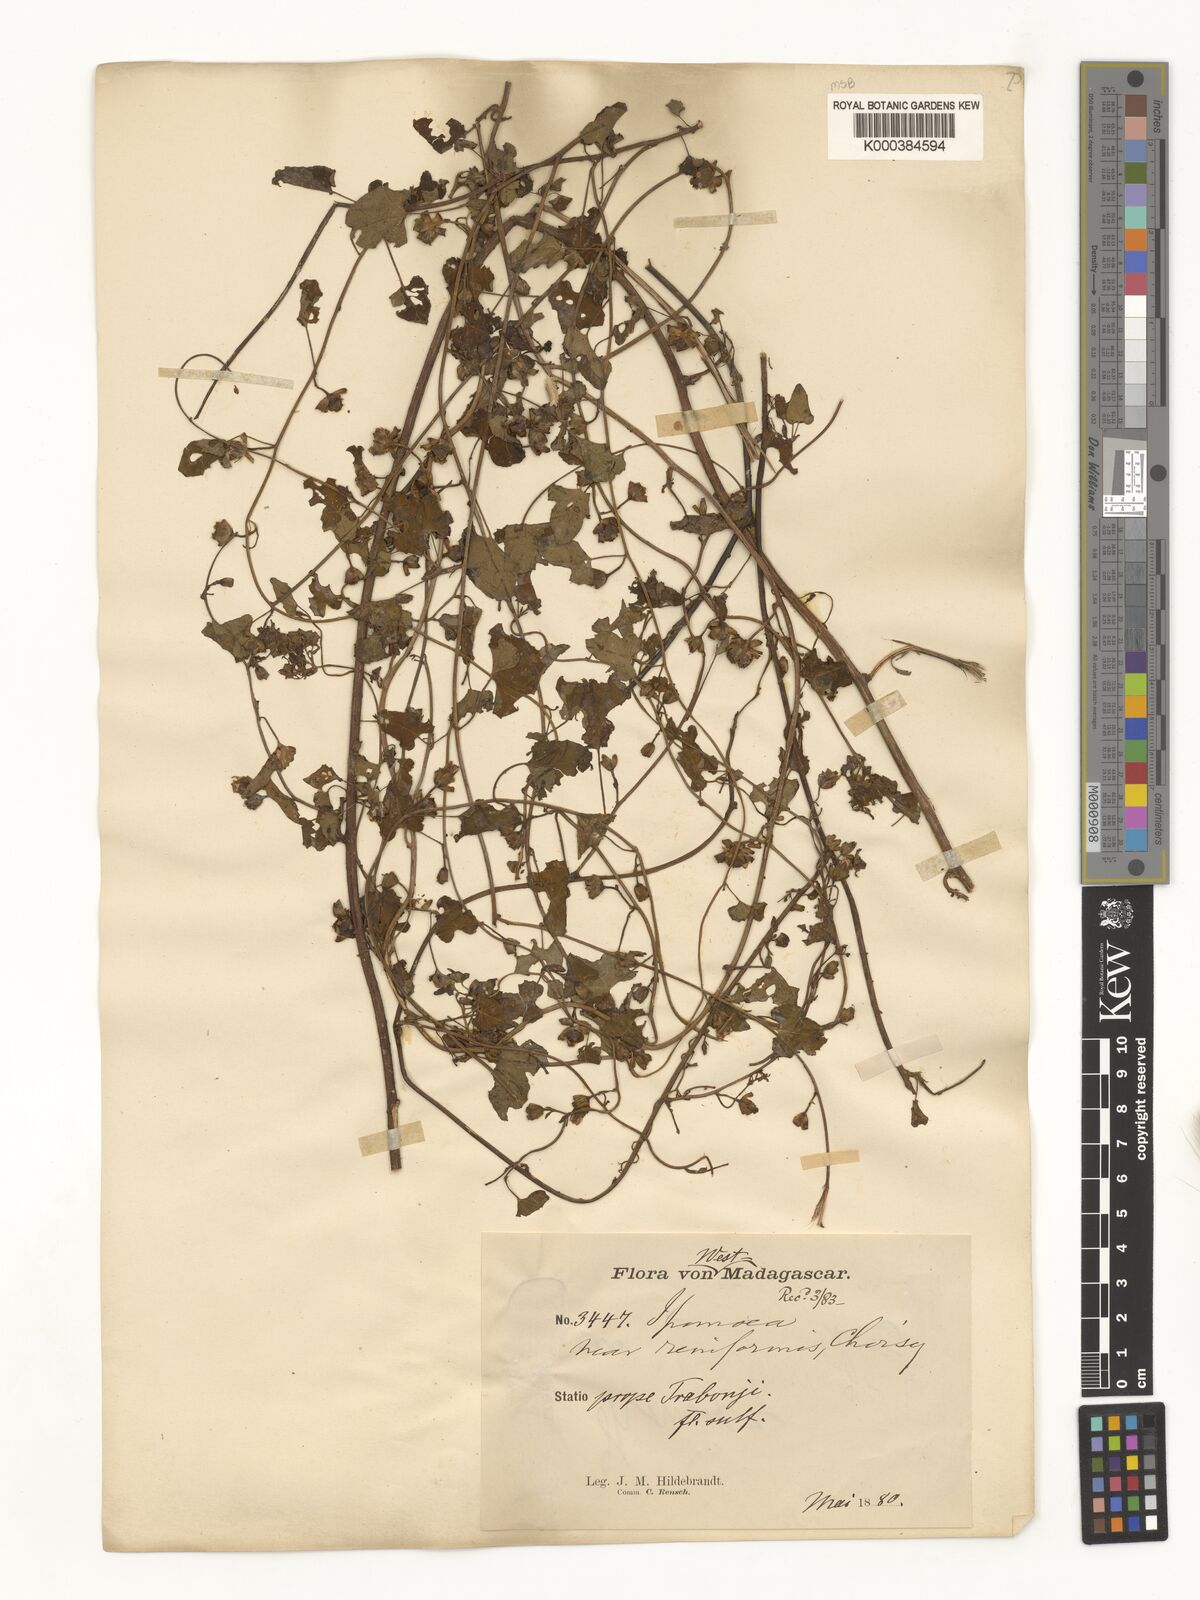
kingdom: Plantae
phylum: Tracheophyta
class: Magnoliopsida
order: Solanales
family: Convolvulaceae
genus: Merremia
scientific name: Merremia emarginata
